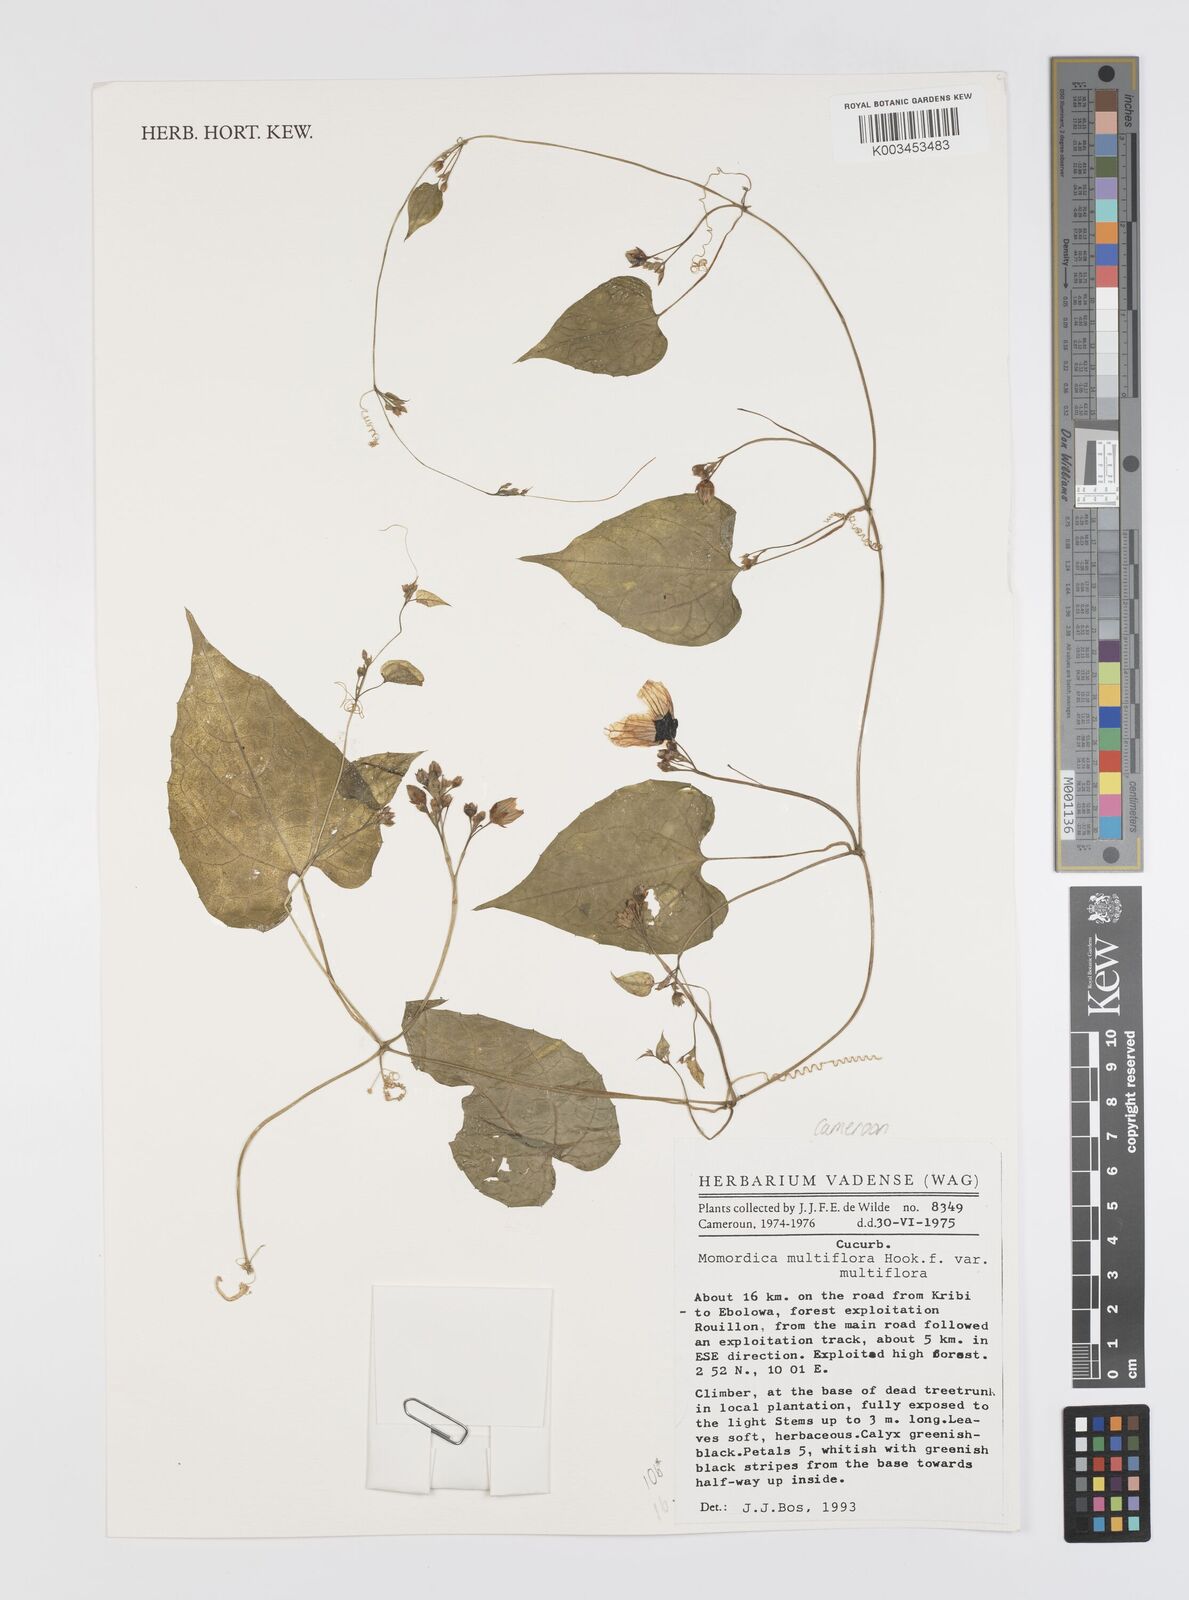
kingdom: Plantae
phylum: Tracheophyta
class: Magnoliopsida
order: Cucurbitales
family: Cucurbitaceae
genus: Momordica
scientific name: Momordica multiflora
